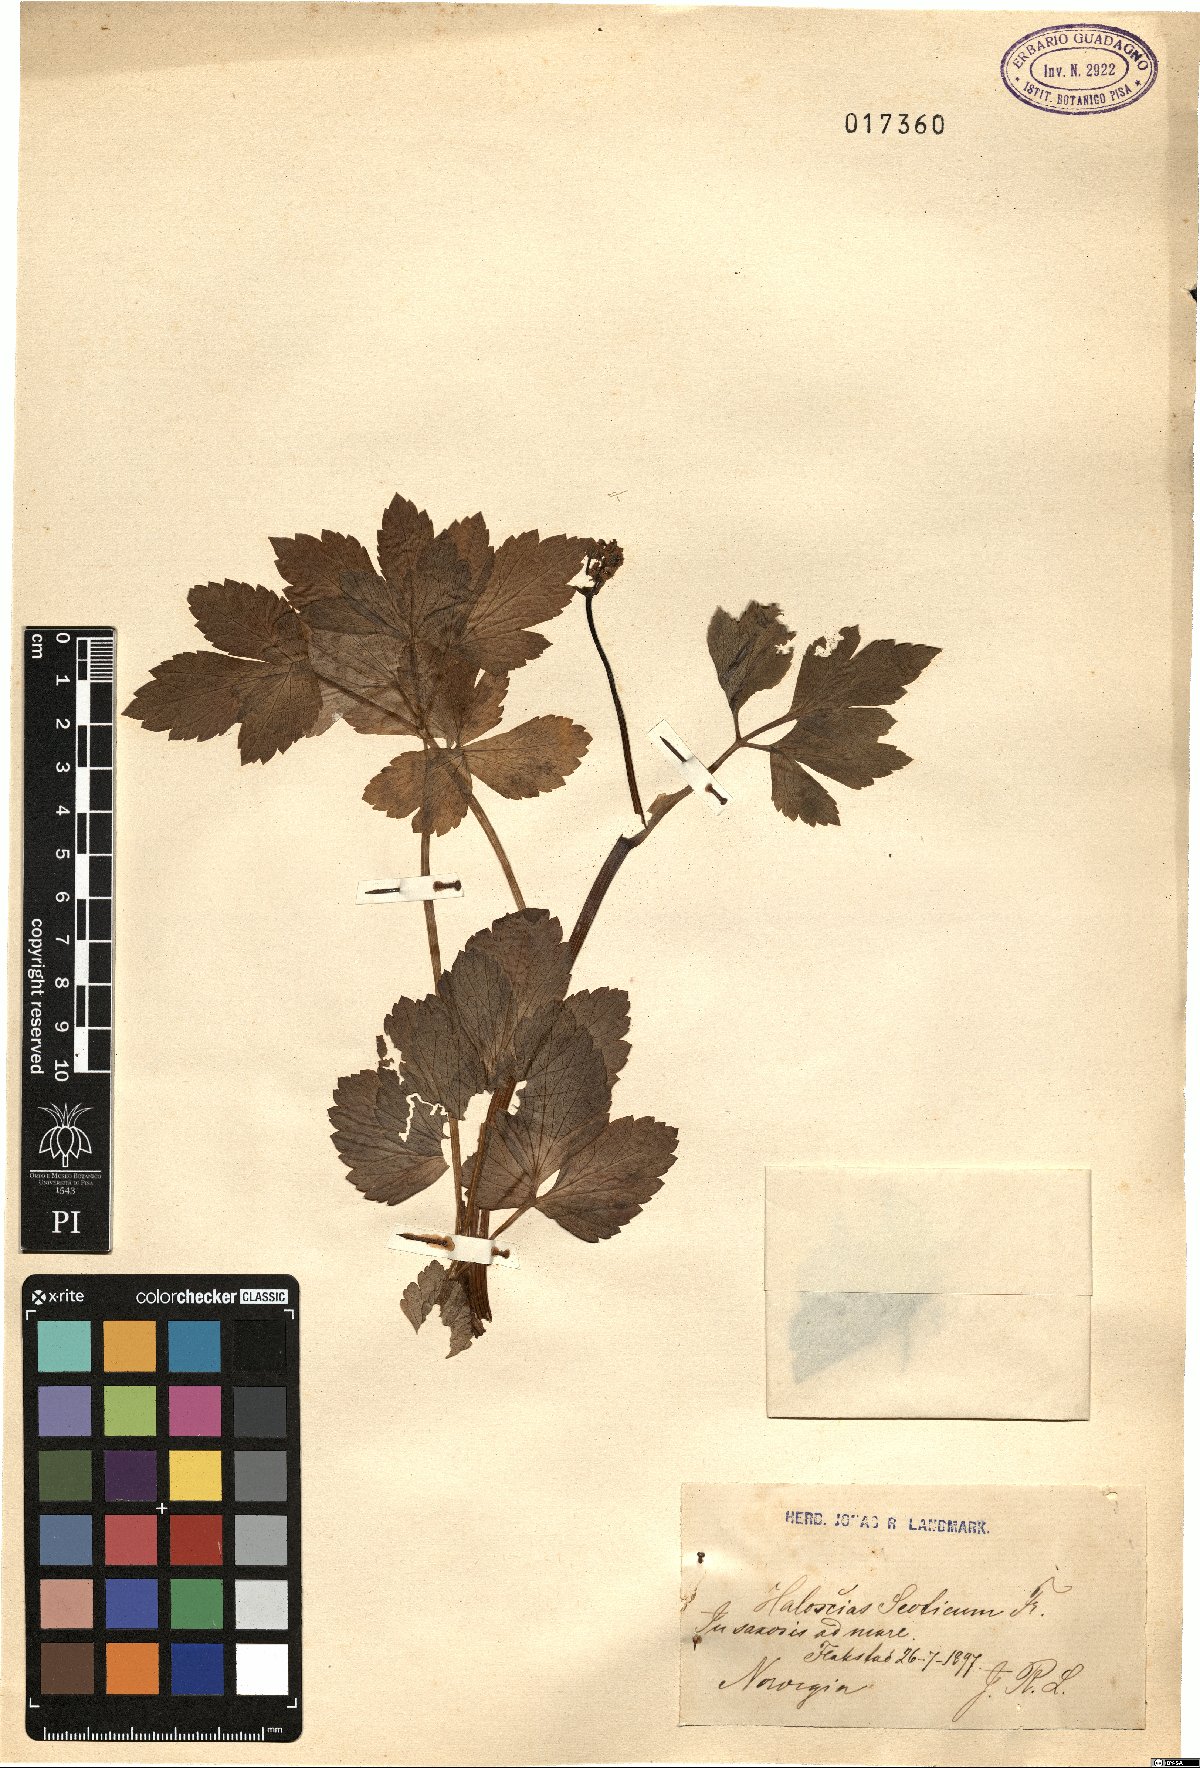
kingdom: Plantae
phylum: Tracheophyta
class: Magnoliopsida
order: Apiales
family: Apiaceae
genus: Halosciastrum
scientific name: Halosciastrum
